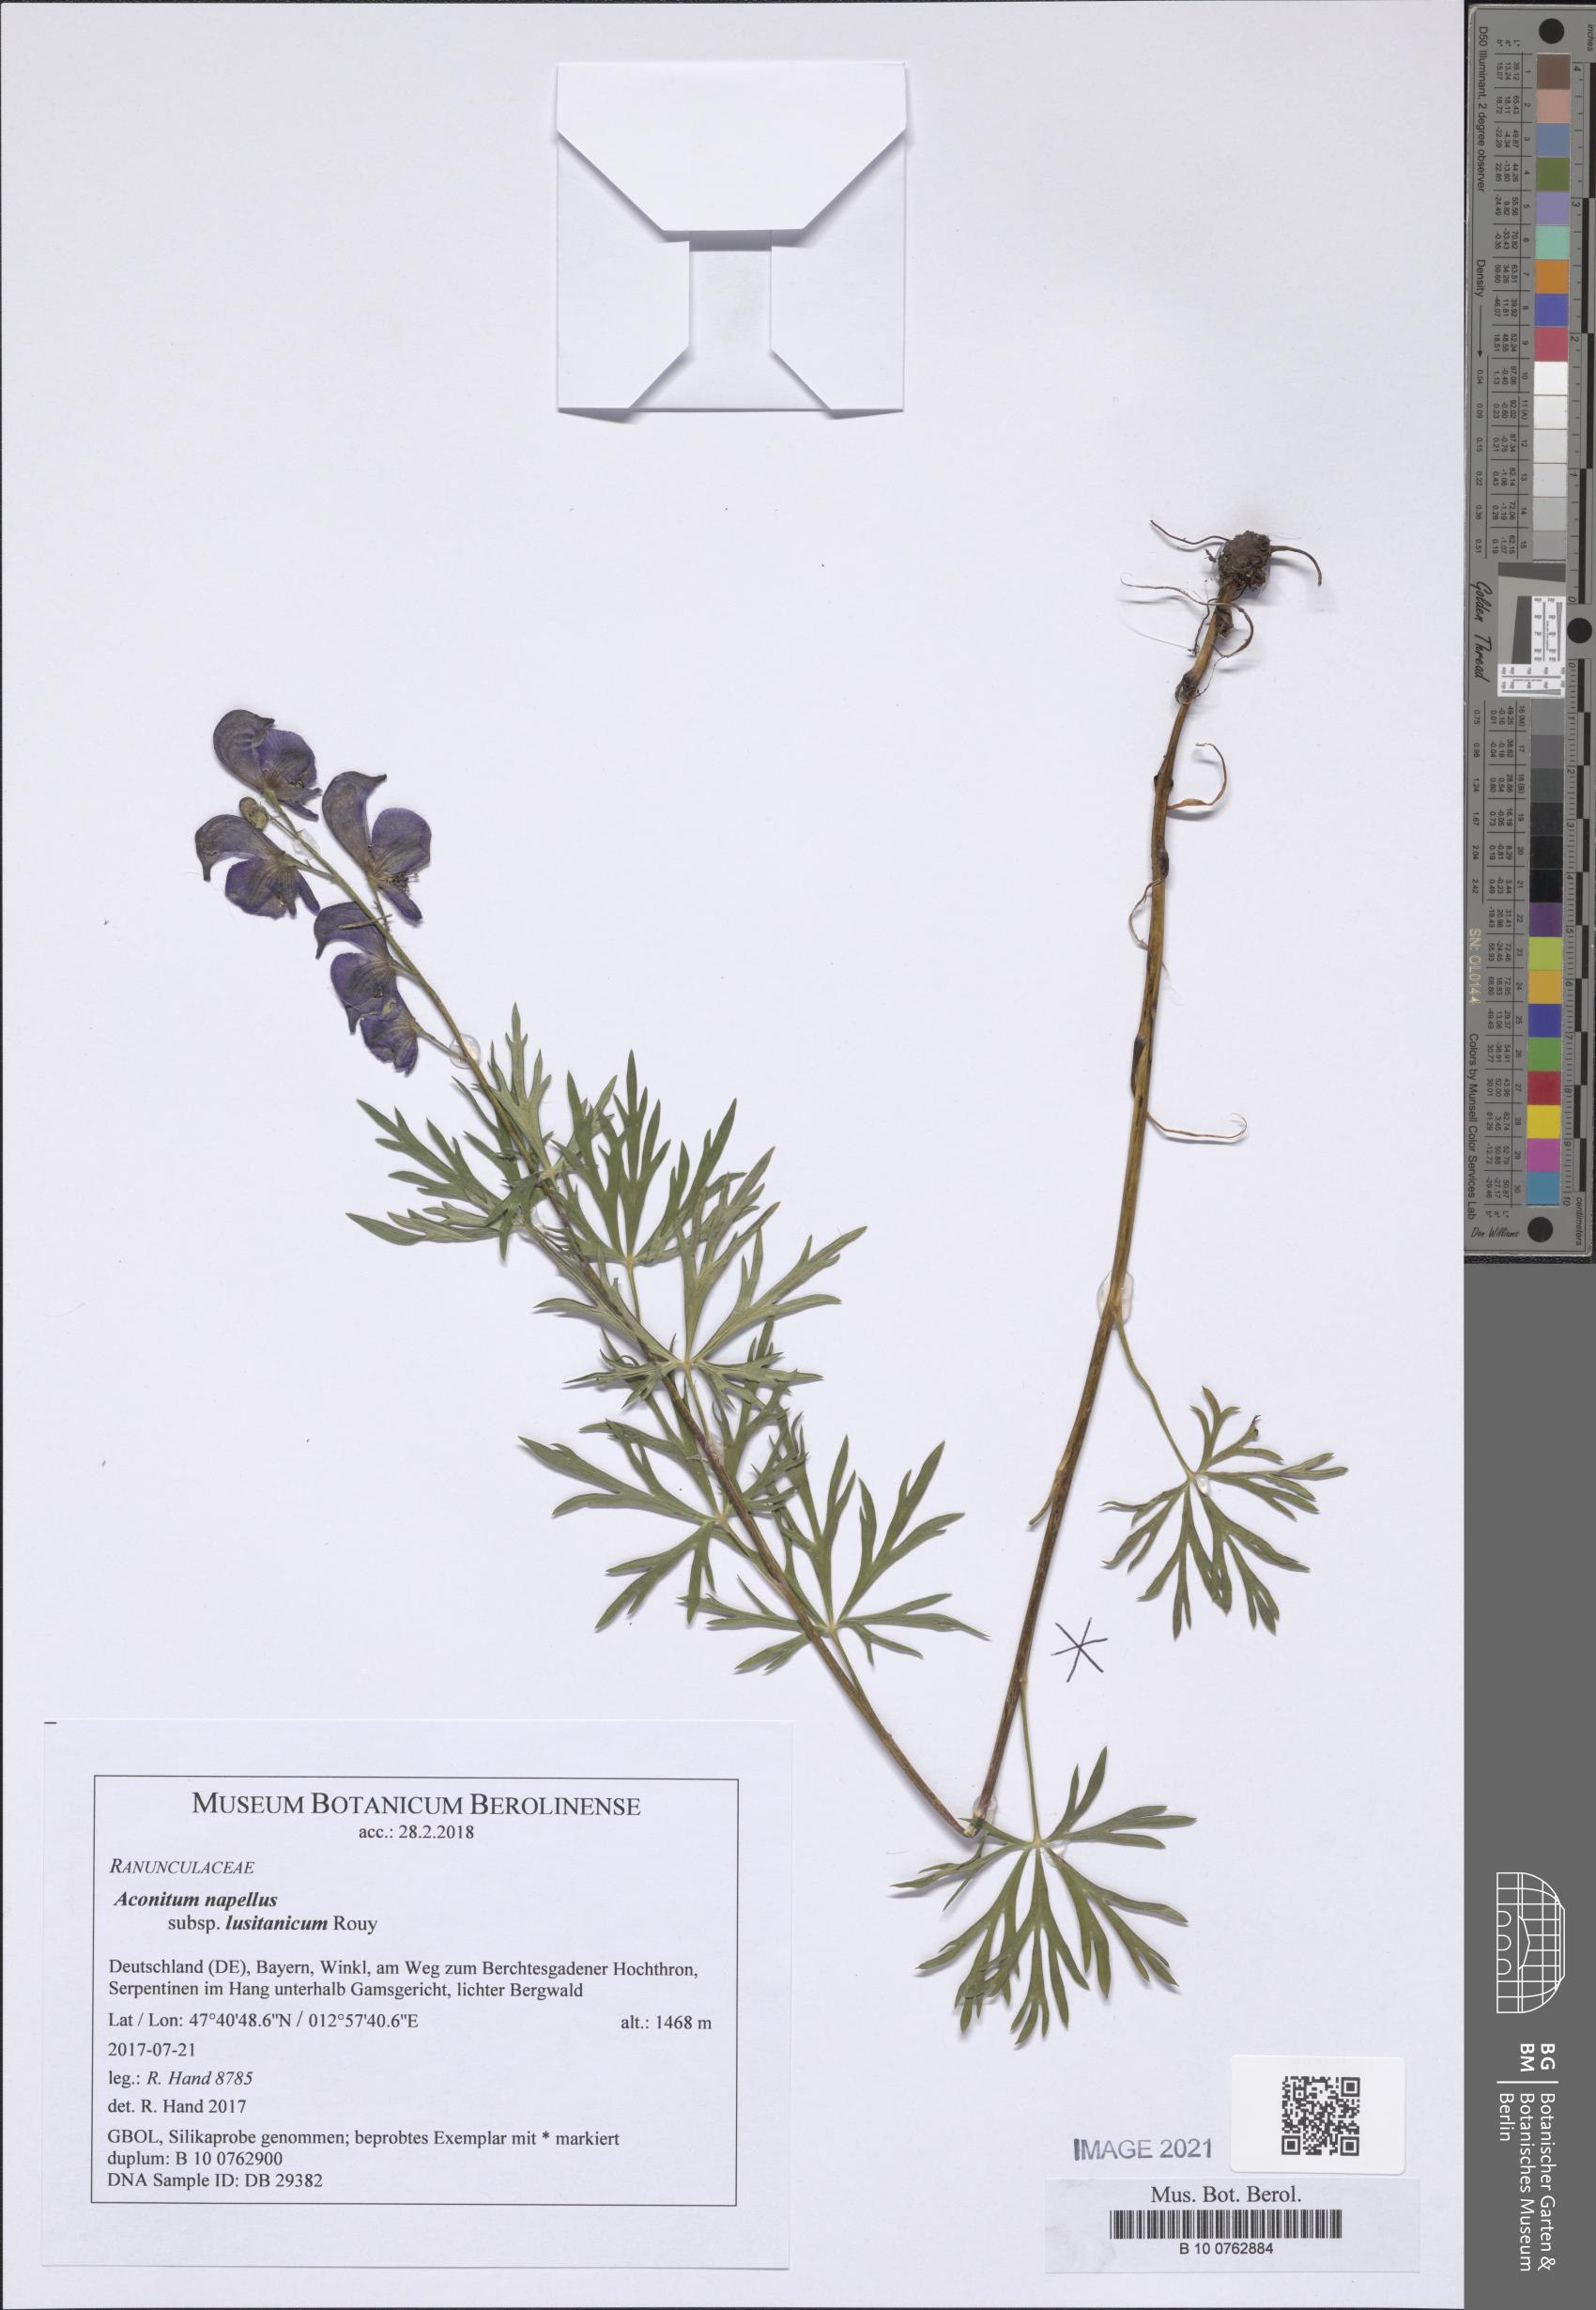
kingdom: Plantae
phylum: Tracheophyta
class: Magnoliopsida
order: Ranunculales
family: Ranunculaceae
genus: Aconitum
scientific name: Aconitum napellus
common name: Garden monkshood
